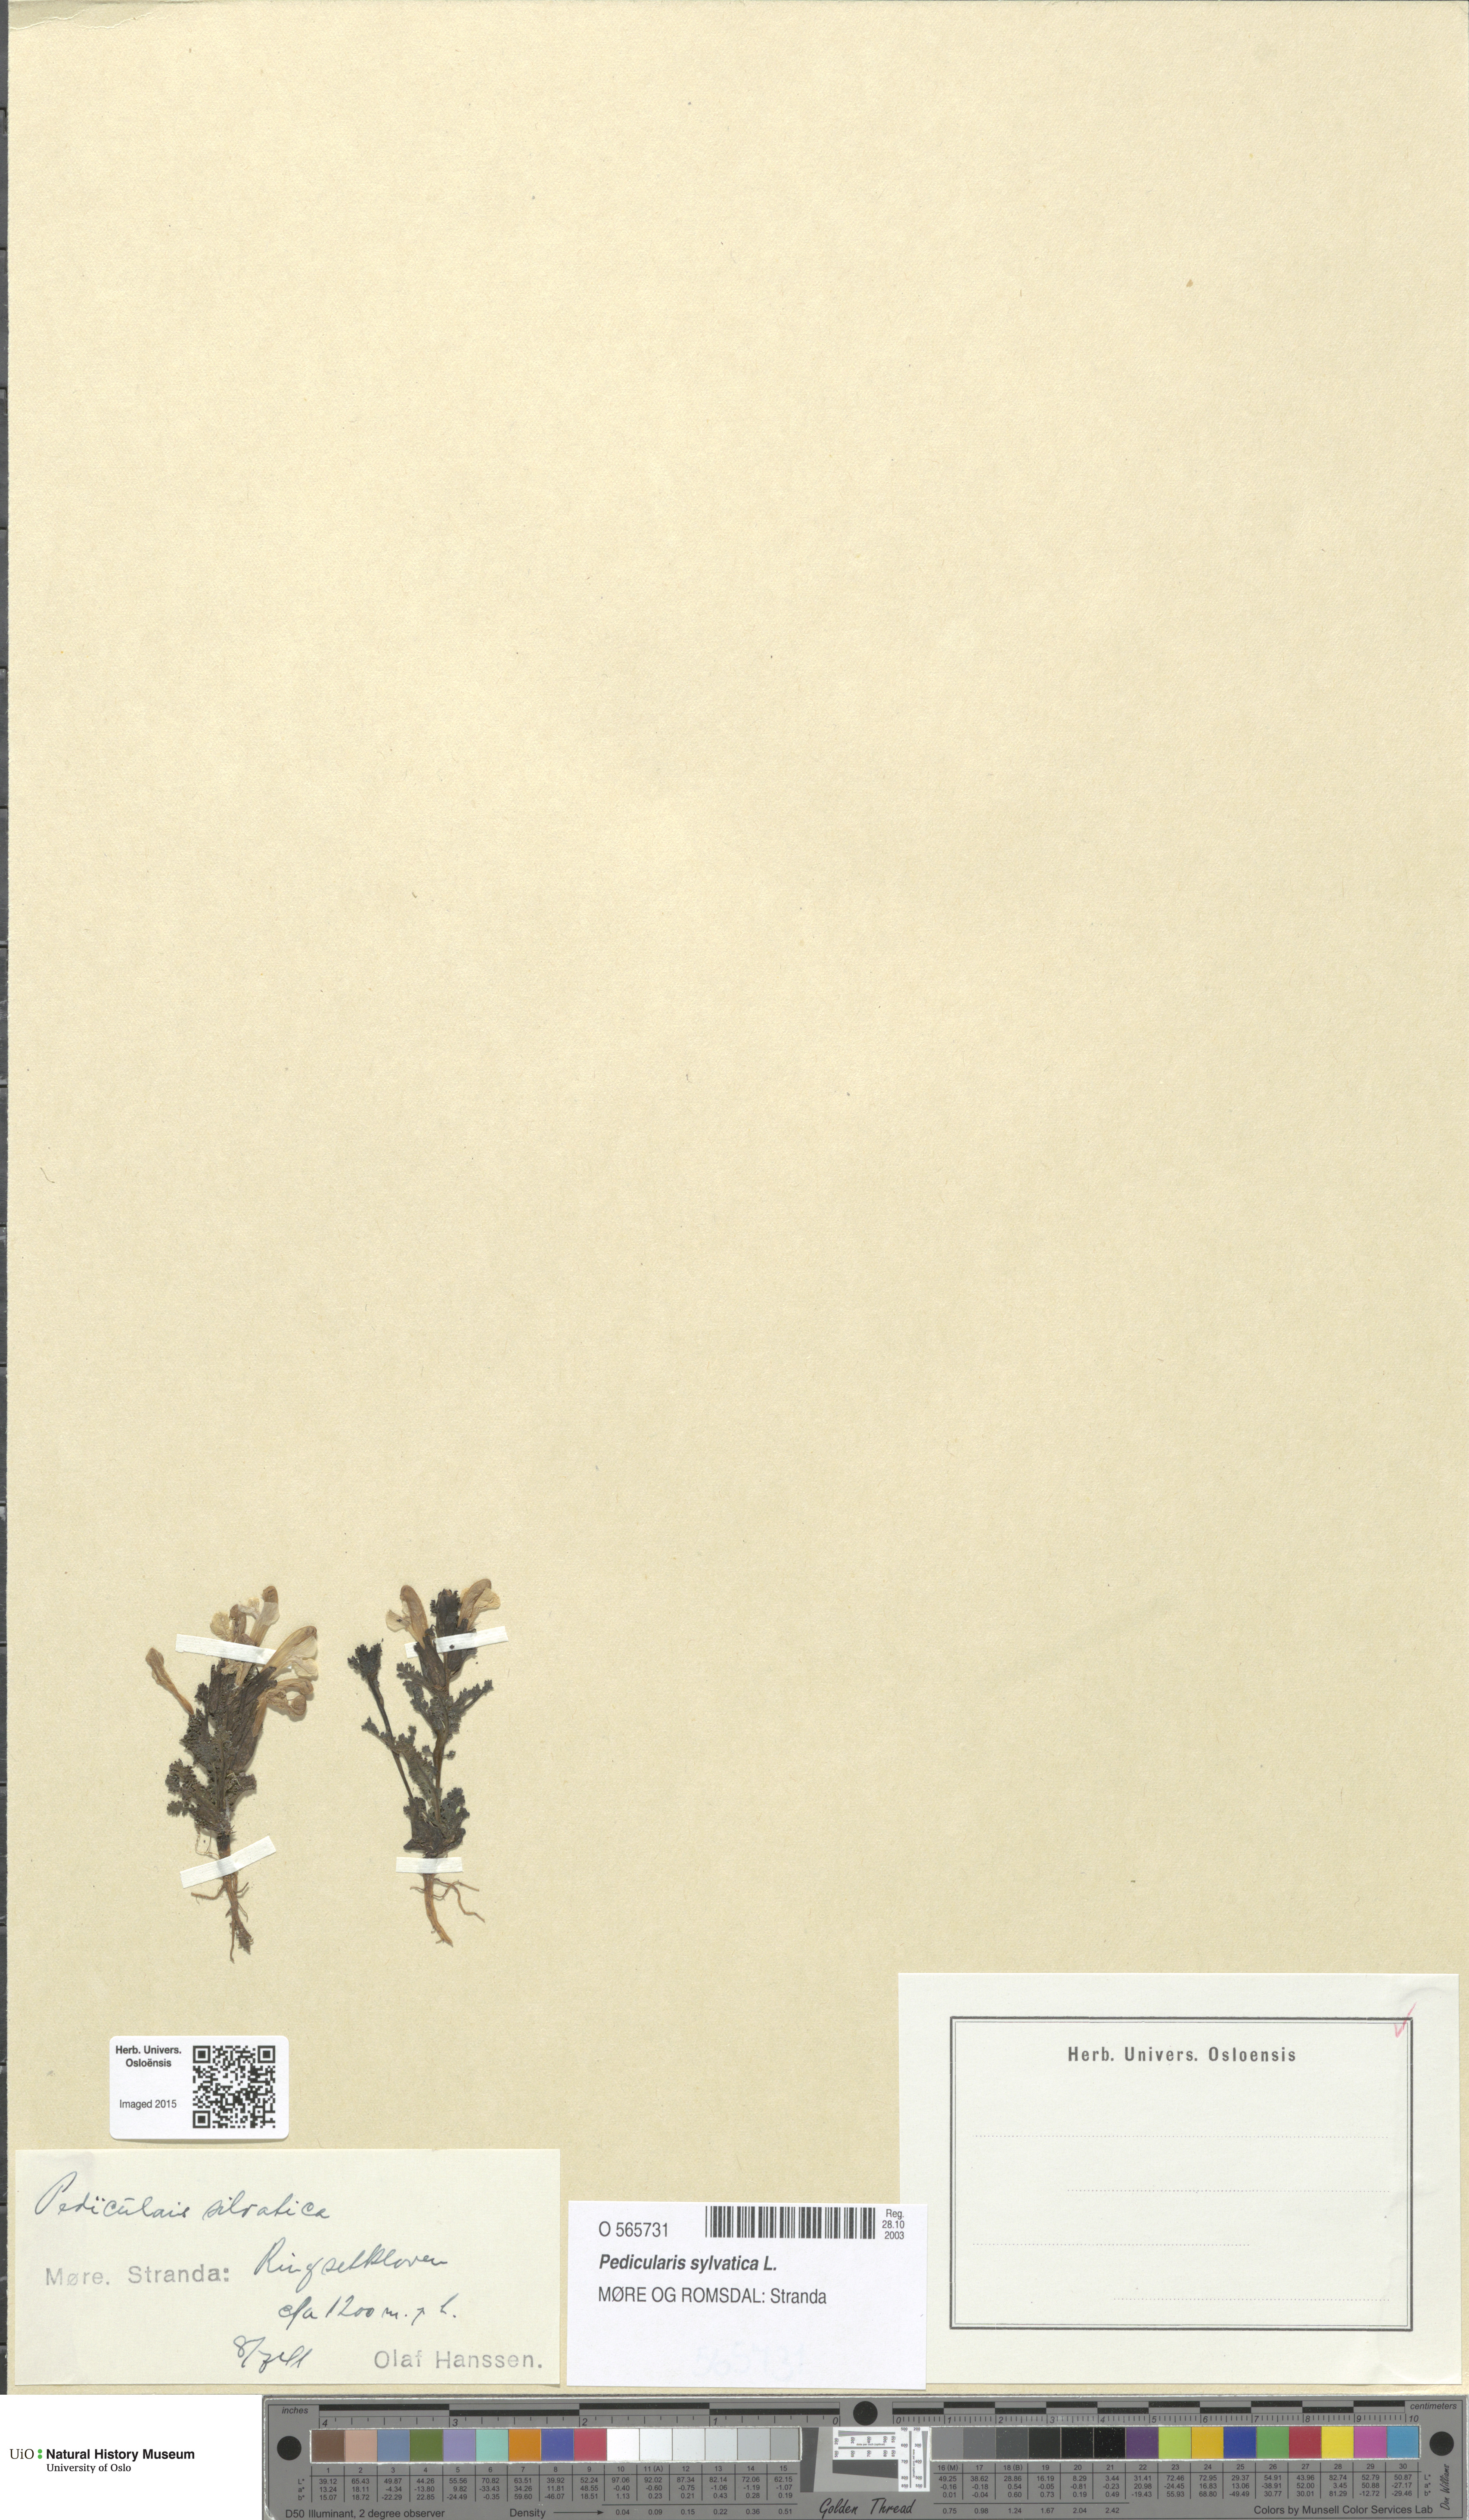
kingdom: Plantae
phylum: Tracheophyta
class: Magnoliopsida
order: Lamiales
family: Orobanchaceae
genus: Pedicularis
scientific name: Pedicularis sylvatica
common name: Lousewort
